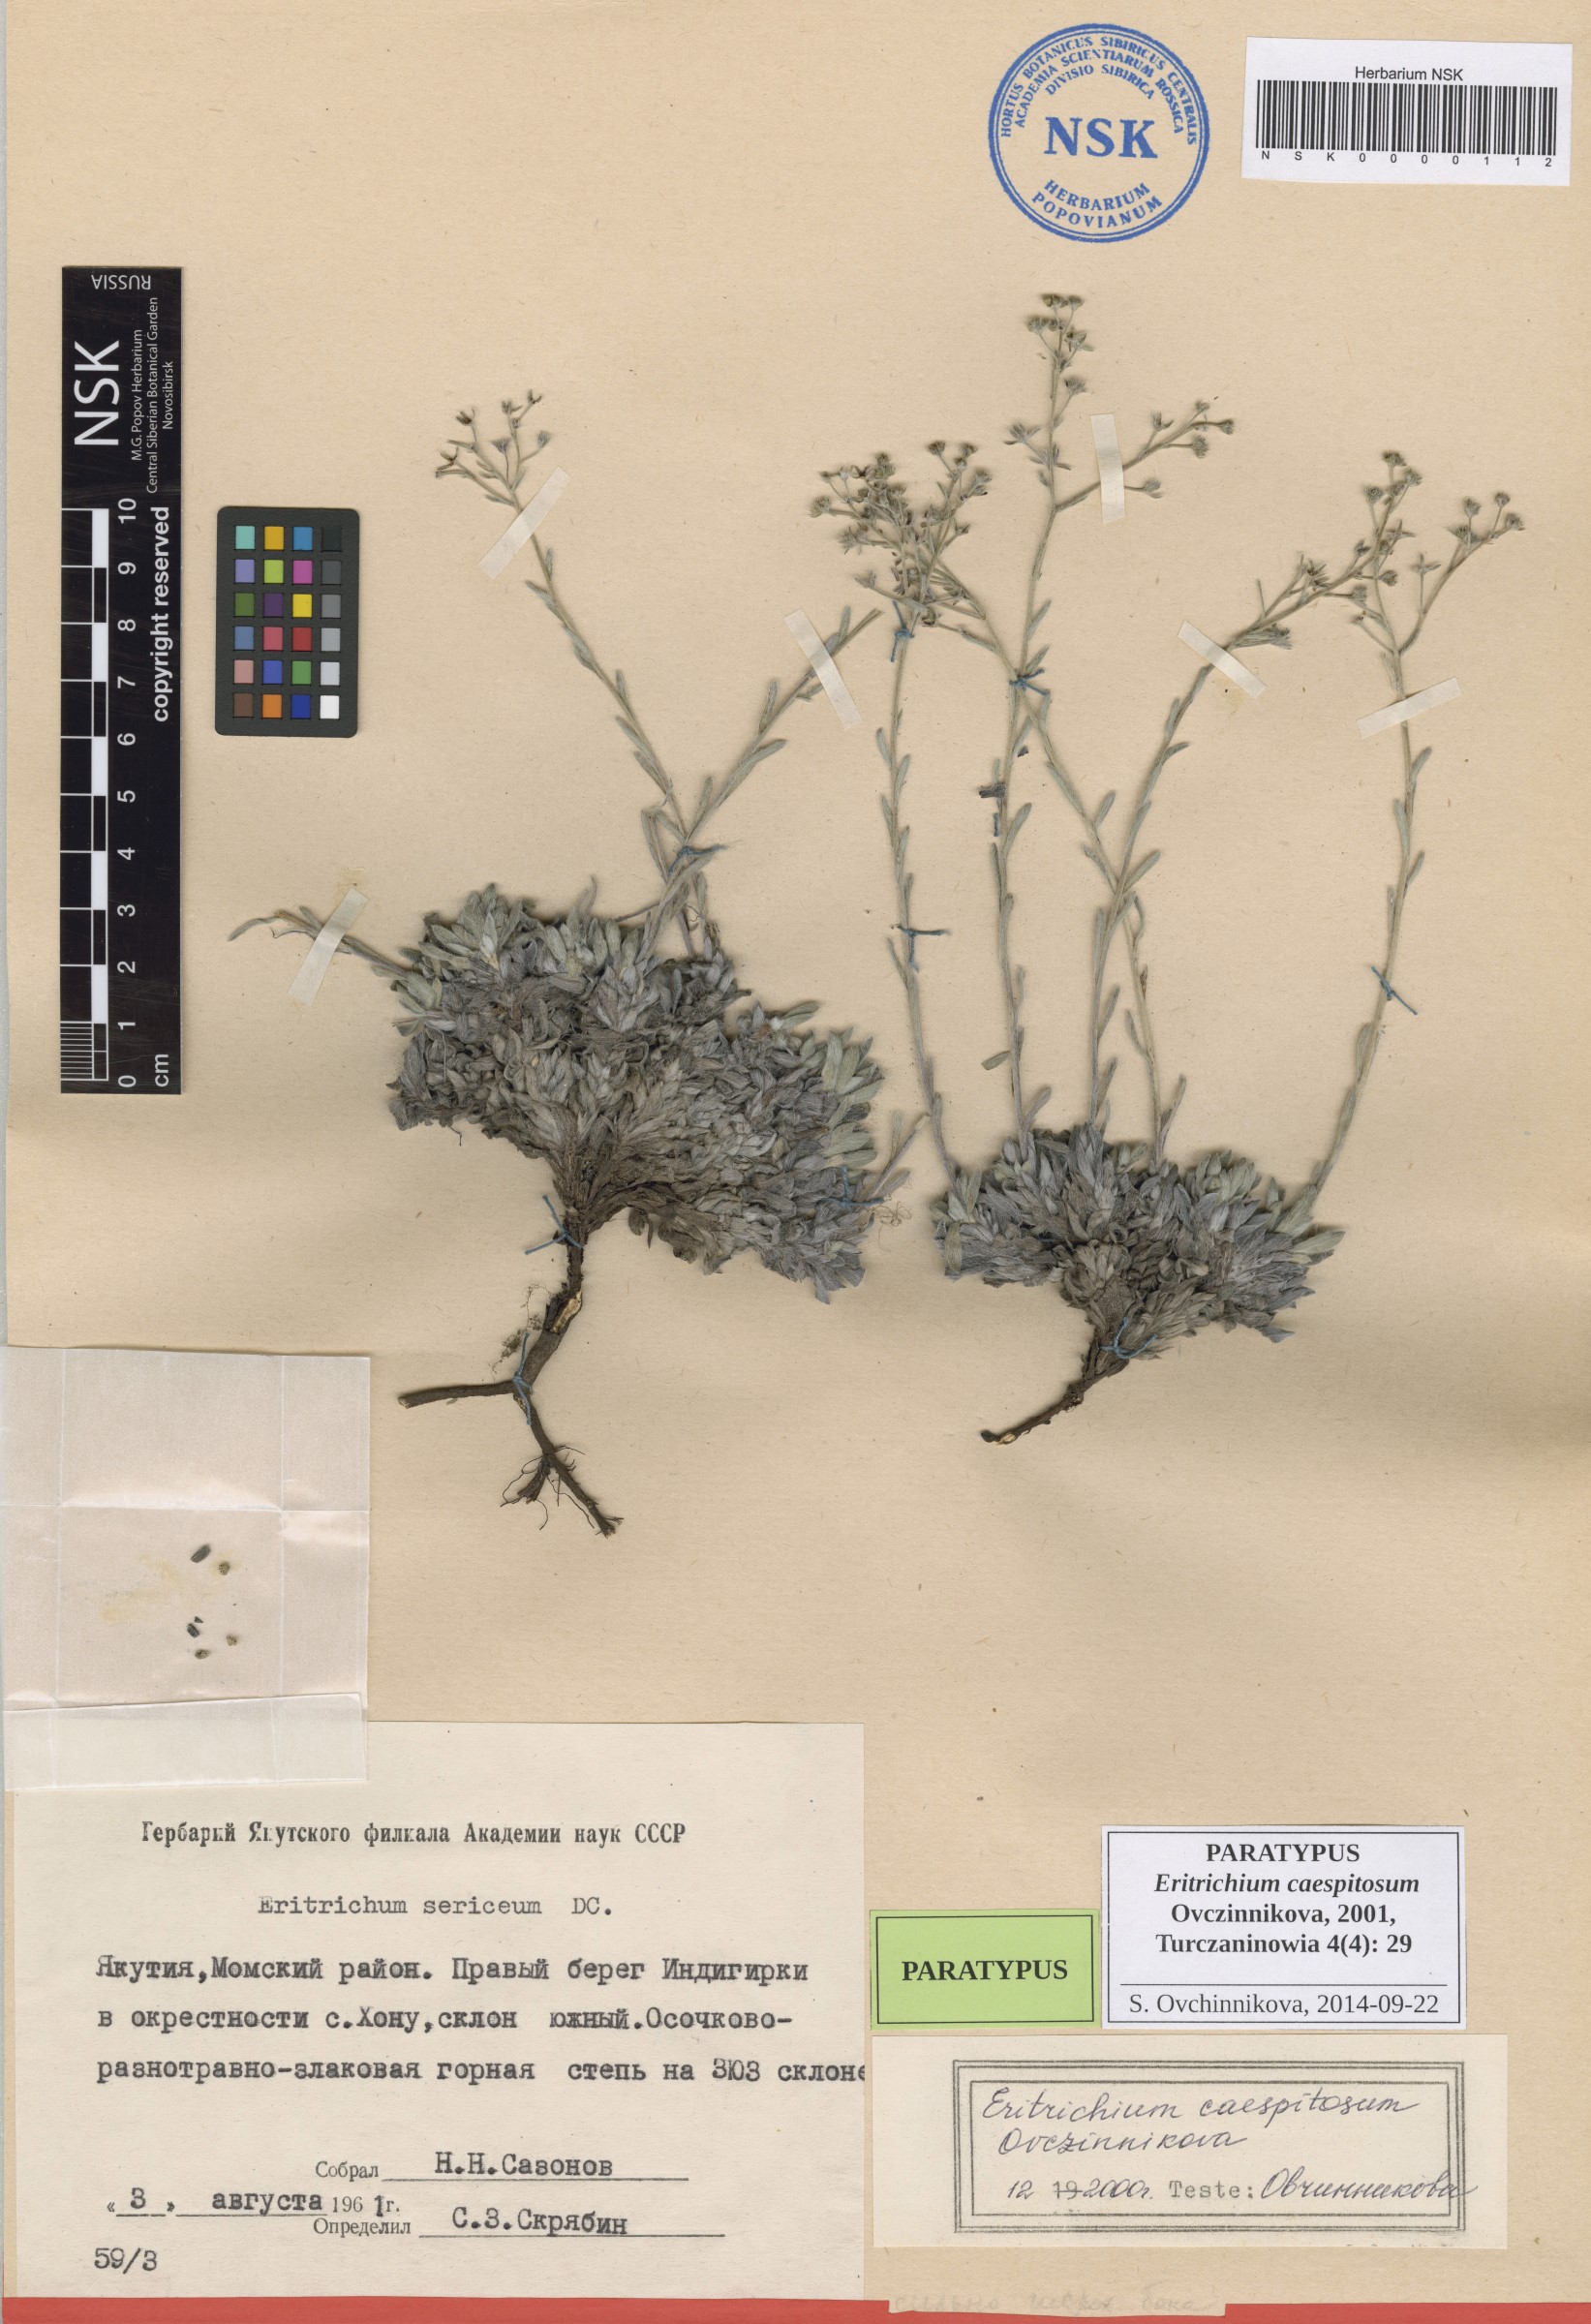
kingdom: Plantae
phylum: Tracheophyta
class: Magnoliopsida
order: Boraginales
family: Boraginaceae
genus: Eritrichium
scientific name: Eritrichium caespitosum
